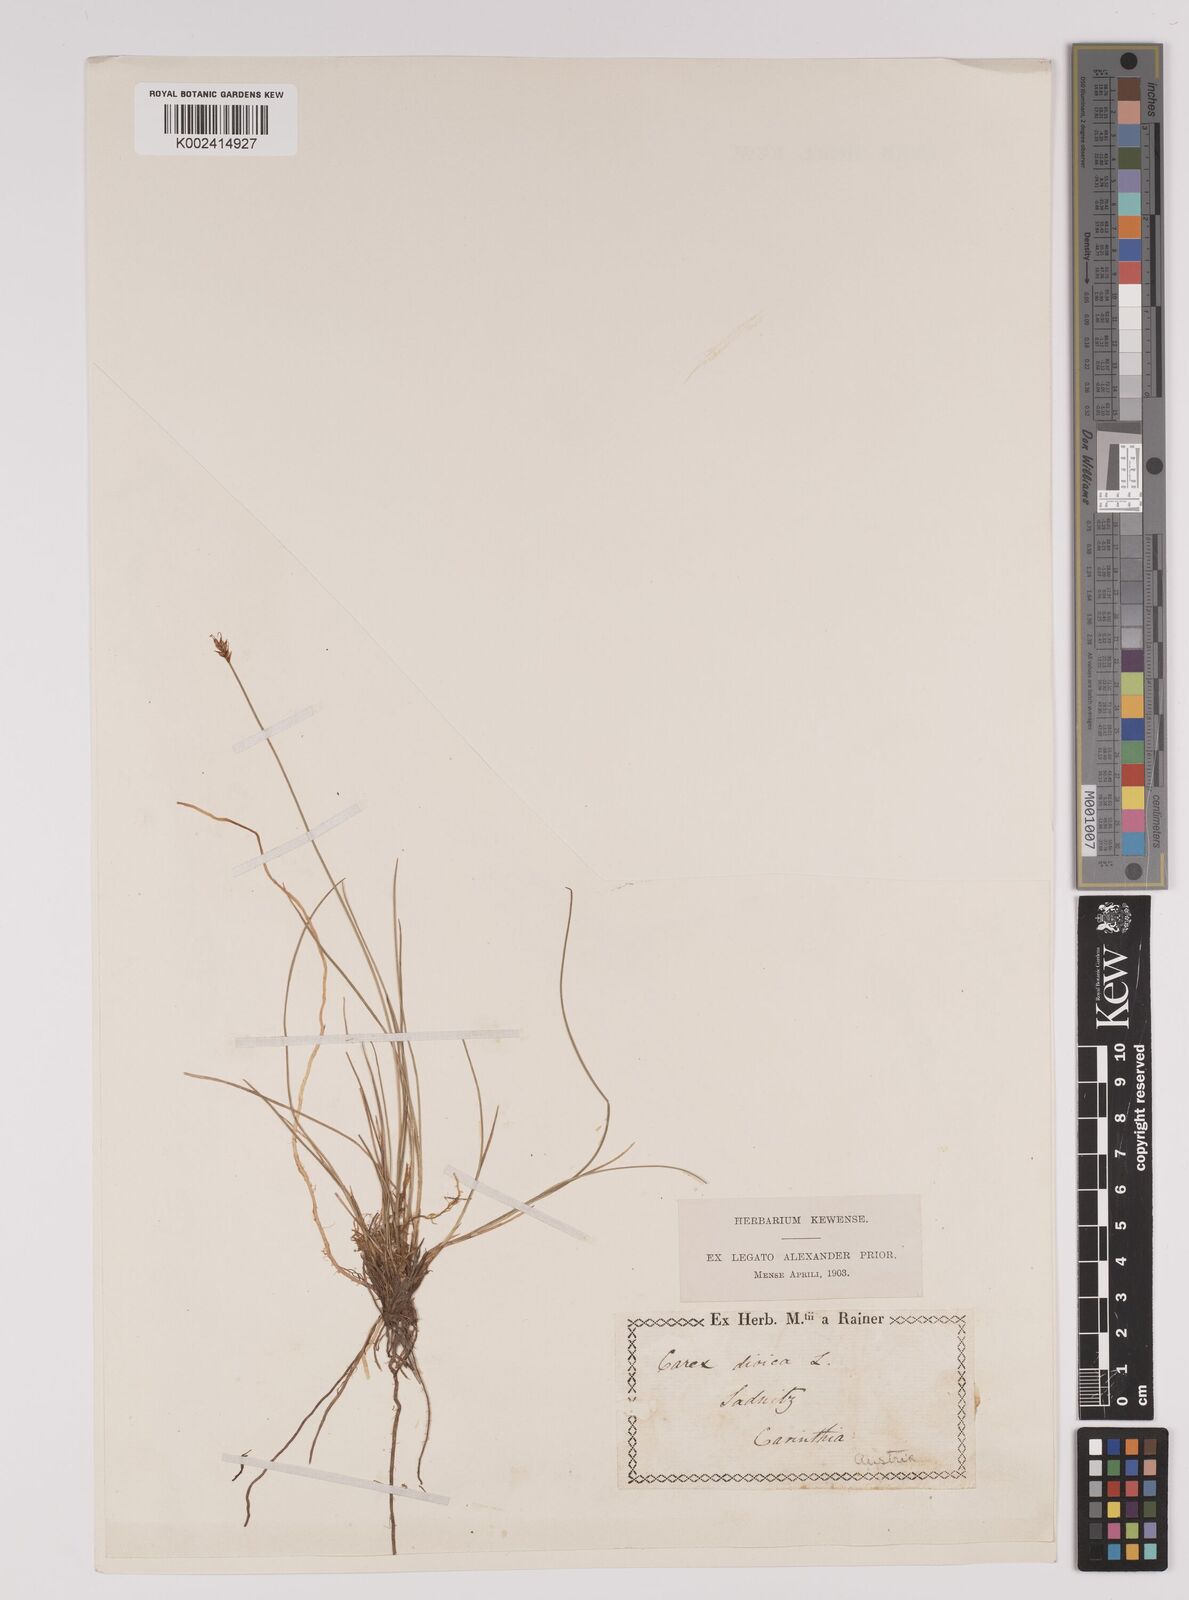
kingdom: Plantae
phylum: Tracheophyta
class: Liliopsida
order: Poales
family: Cyperaceae
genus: Carex
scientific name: Carex dioica
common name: Dioecious sedge
